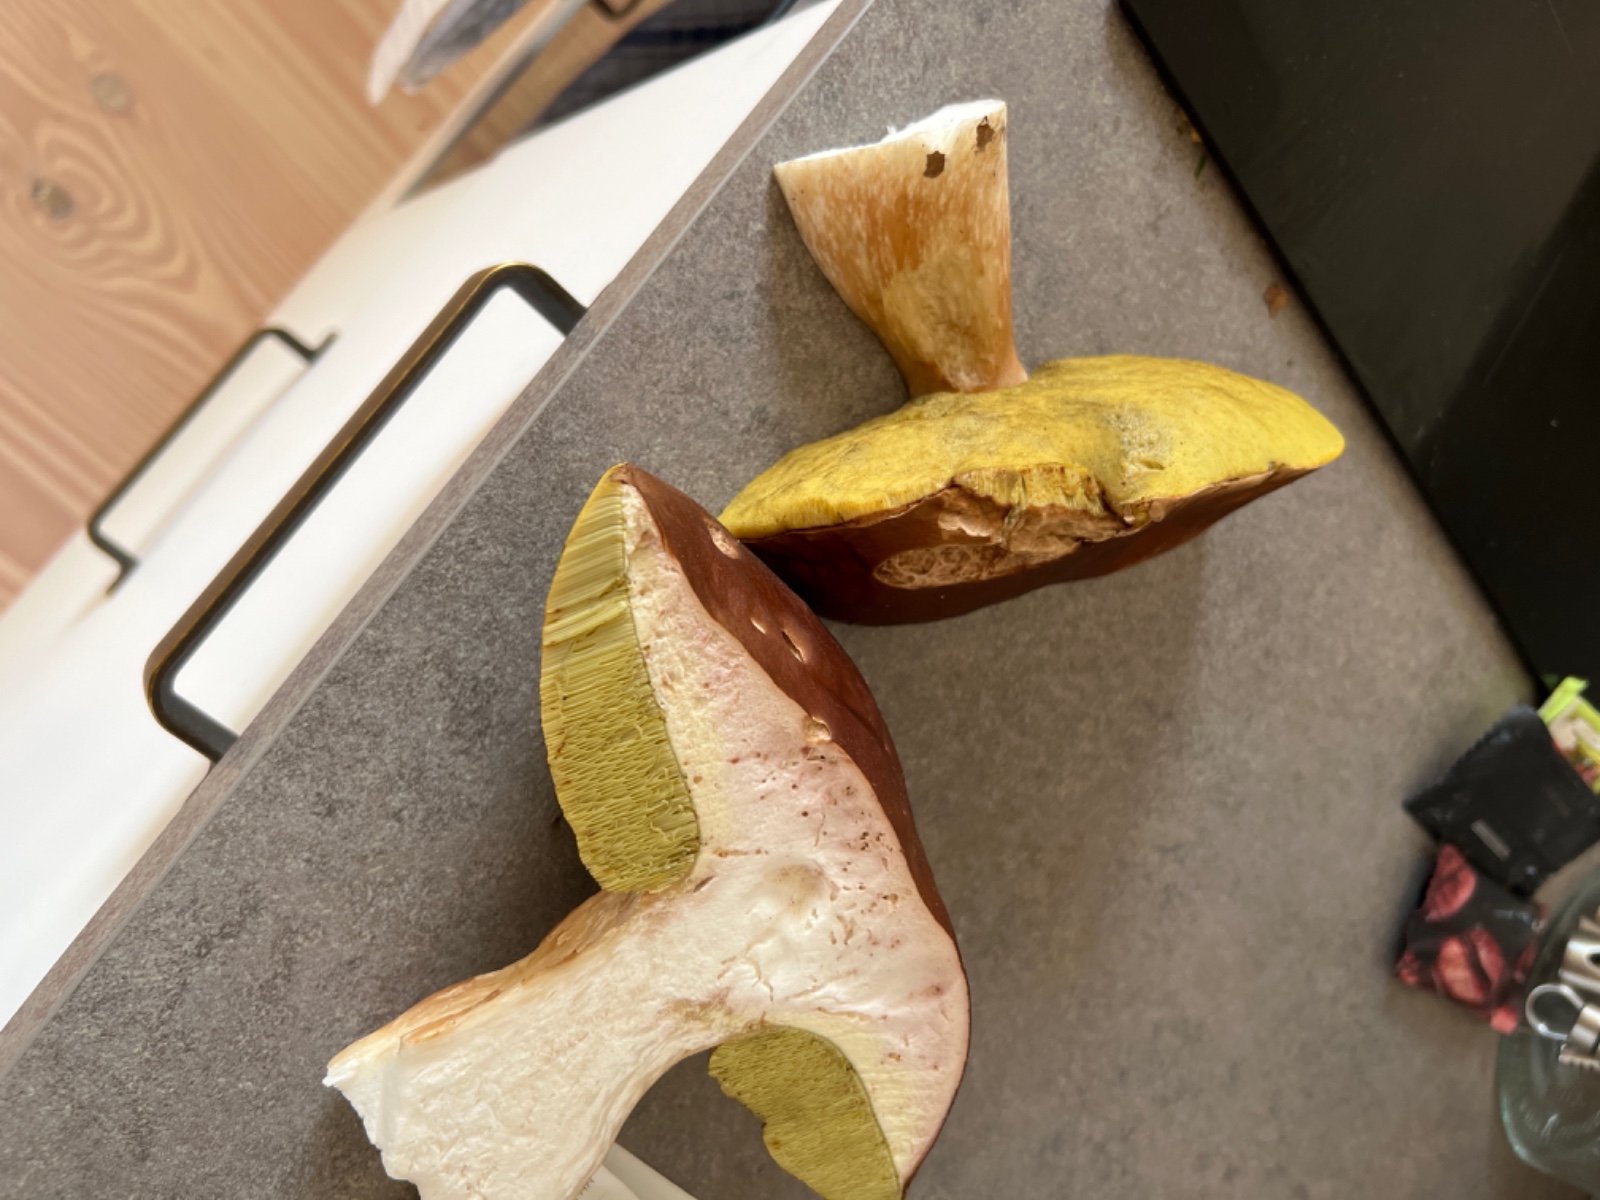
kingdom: Fungi
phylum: Basidiomycota
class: Agaricomycetes
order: Boletales
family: Boletaceae
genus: Boletus
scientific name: Boletus edulis
